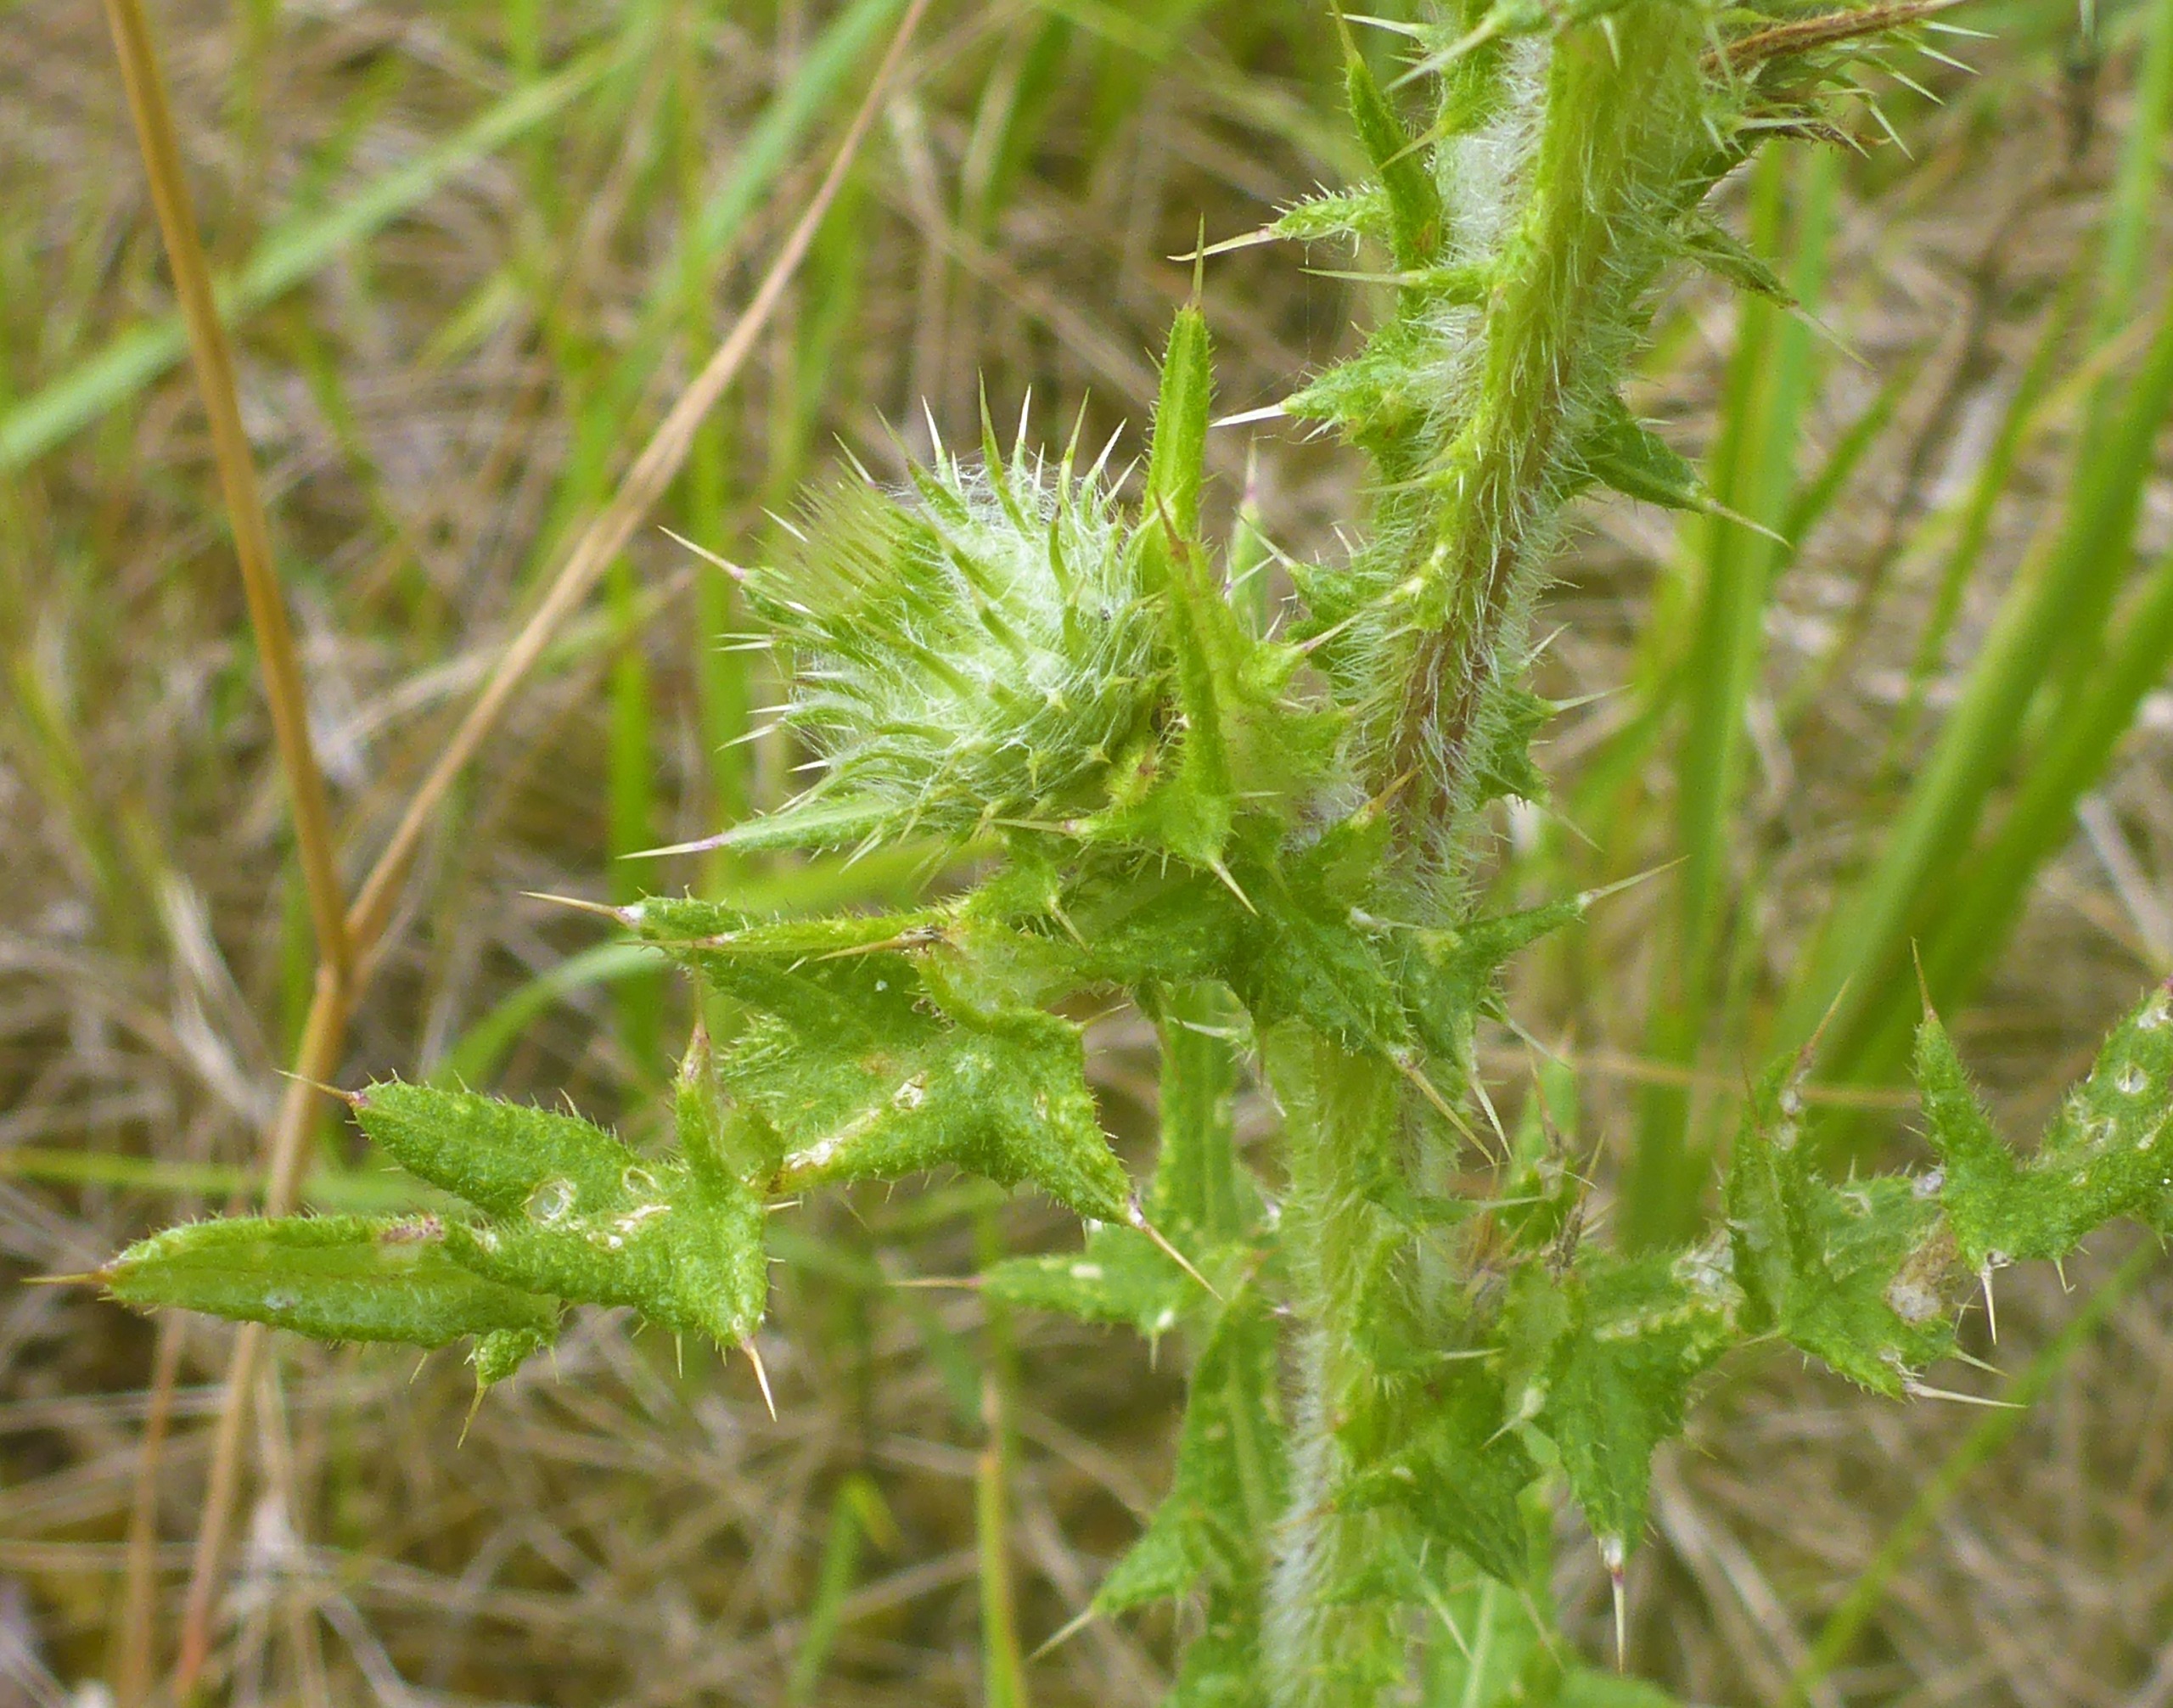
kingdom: Plantae
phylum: Tracheophyta
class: Magnoliopsida
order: Asterales
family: Asteraceae
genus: Cirsium
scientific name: Cirsium vulgare
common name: Horse-tidsel
